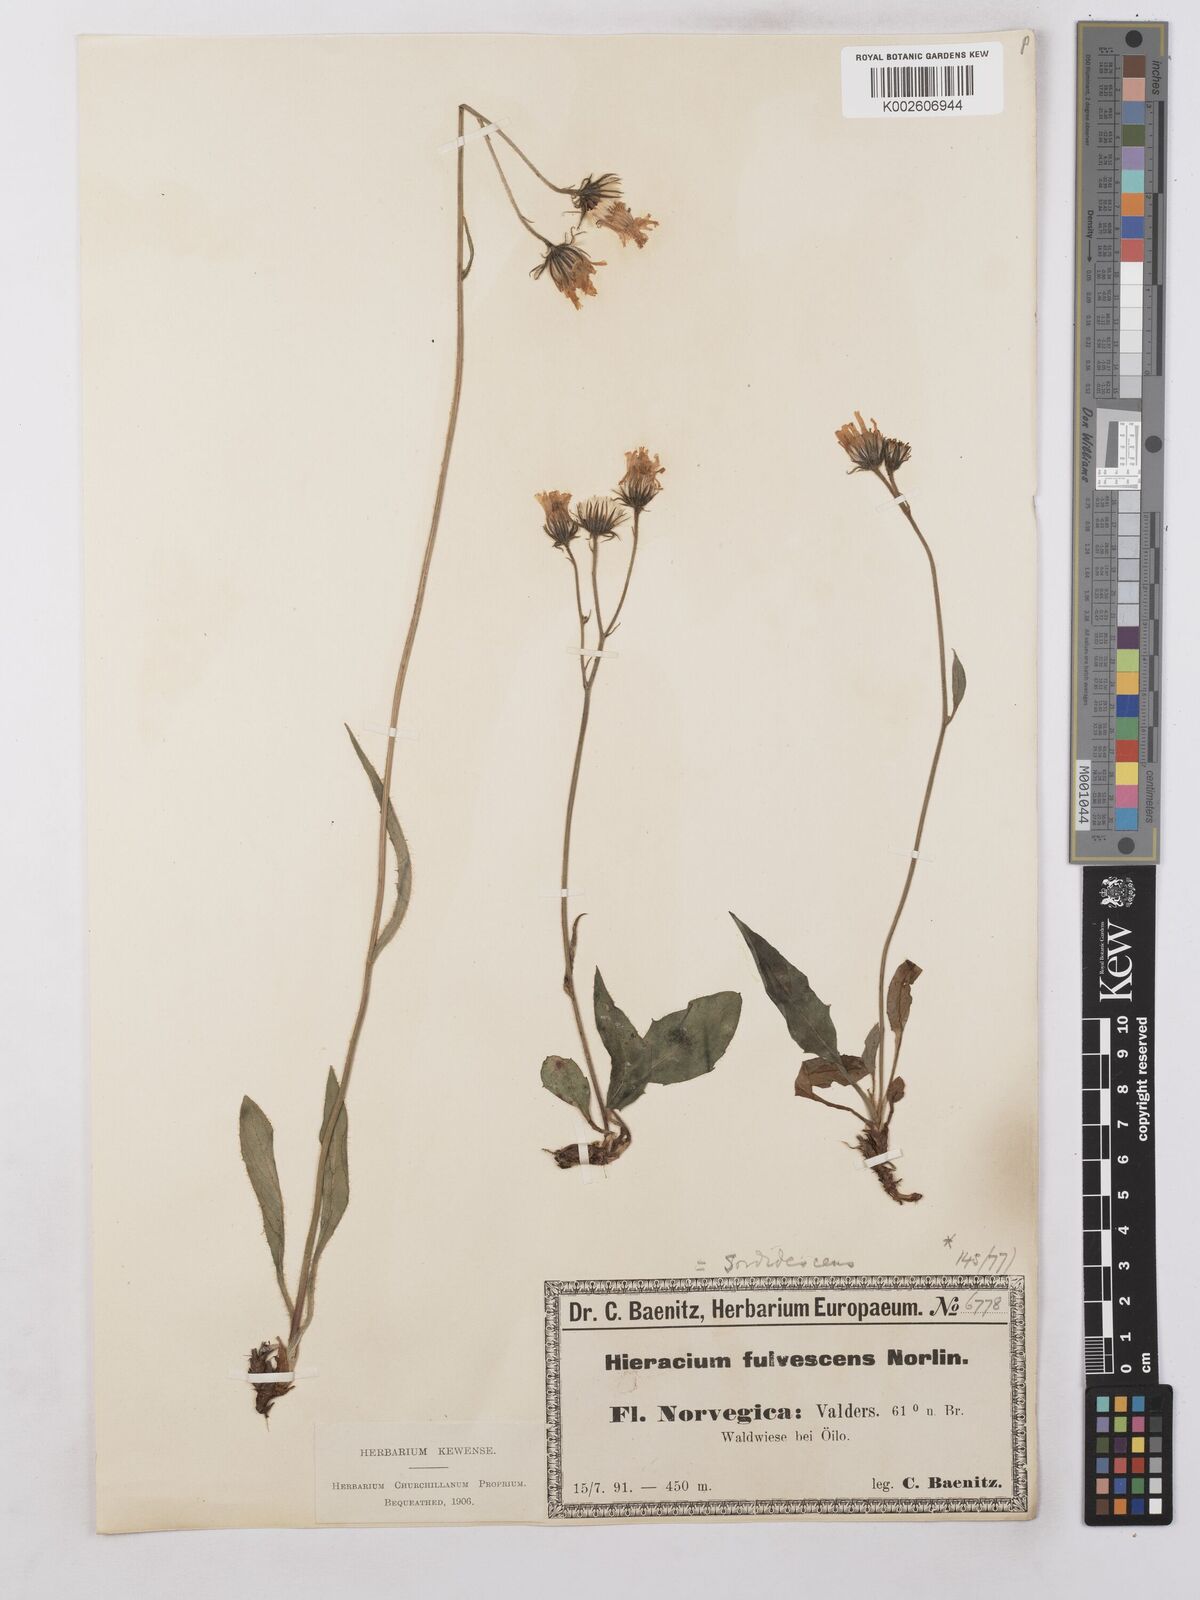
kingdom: Plantae
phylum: Tracheophyta
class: Magnoliopsida
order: Asterales
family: Asteraceae
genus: Hieracium
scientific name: Hieracium levicaule
